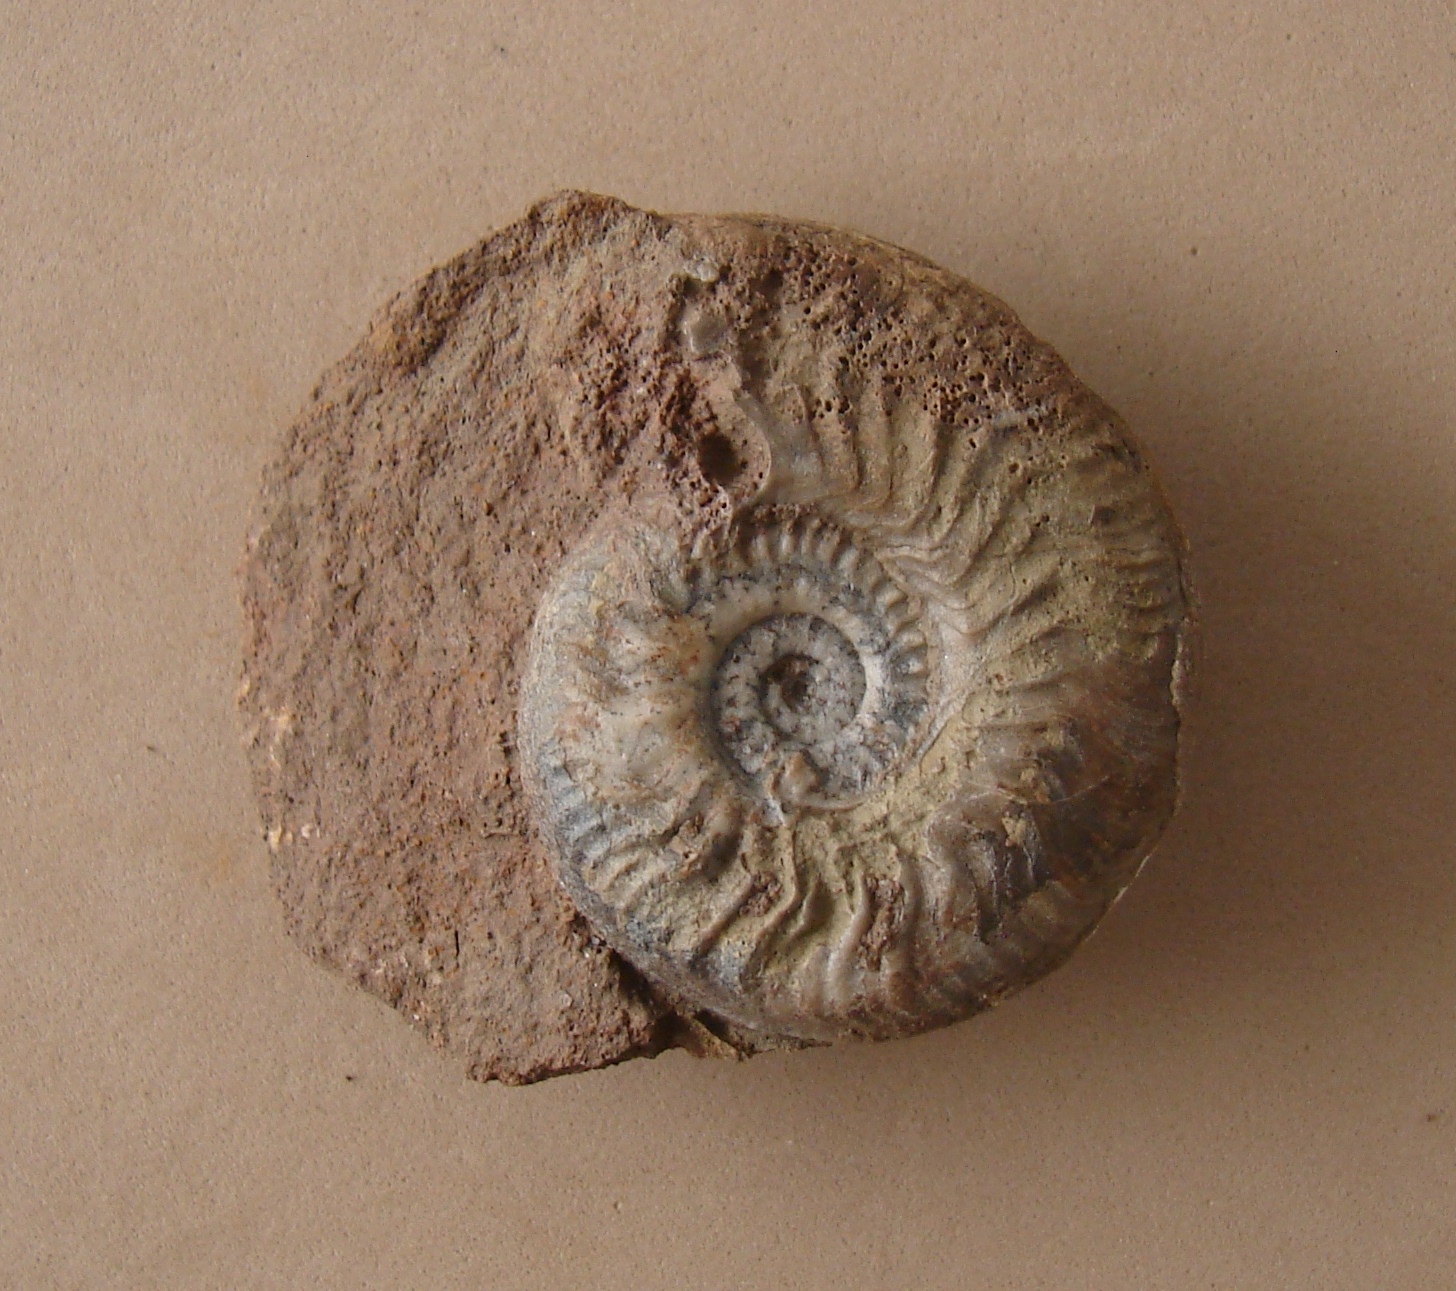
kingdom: Animalia
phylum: Mollusca
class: Cephalopoda
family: Graphoceratidae
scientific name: Graphoceratidae
